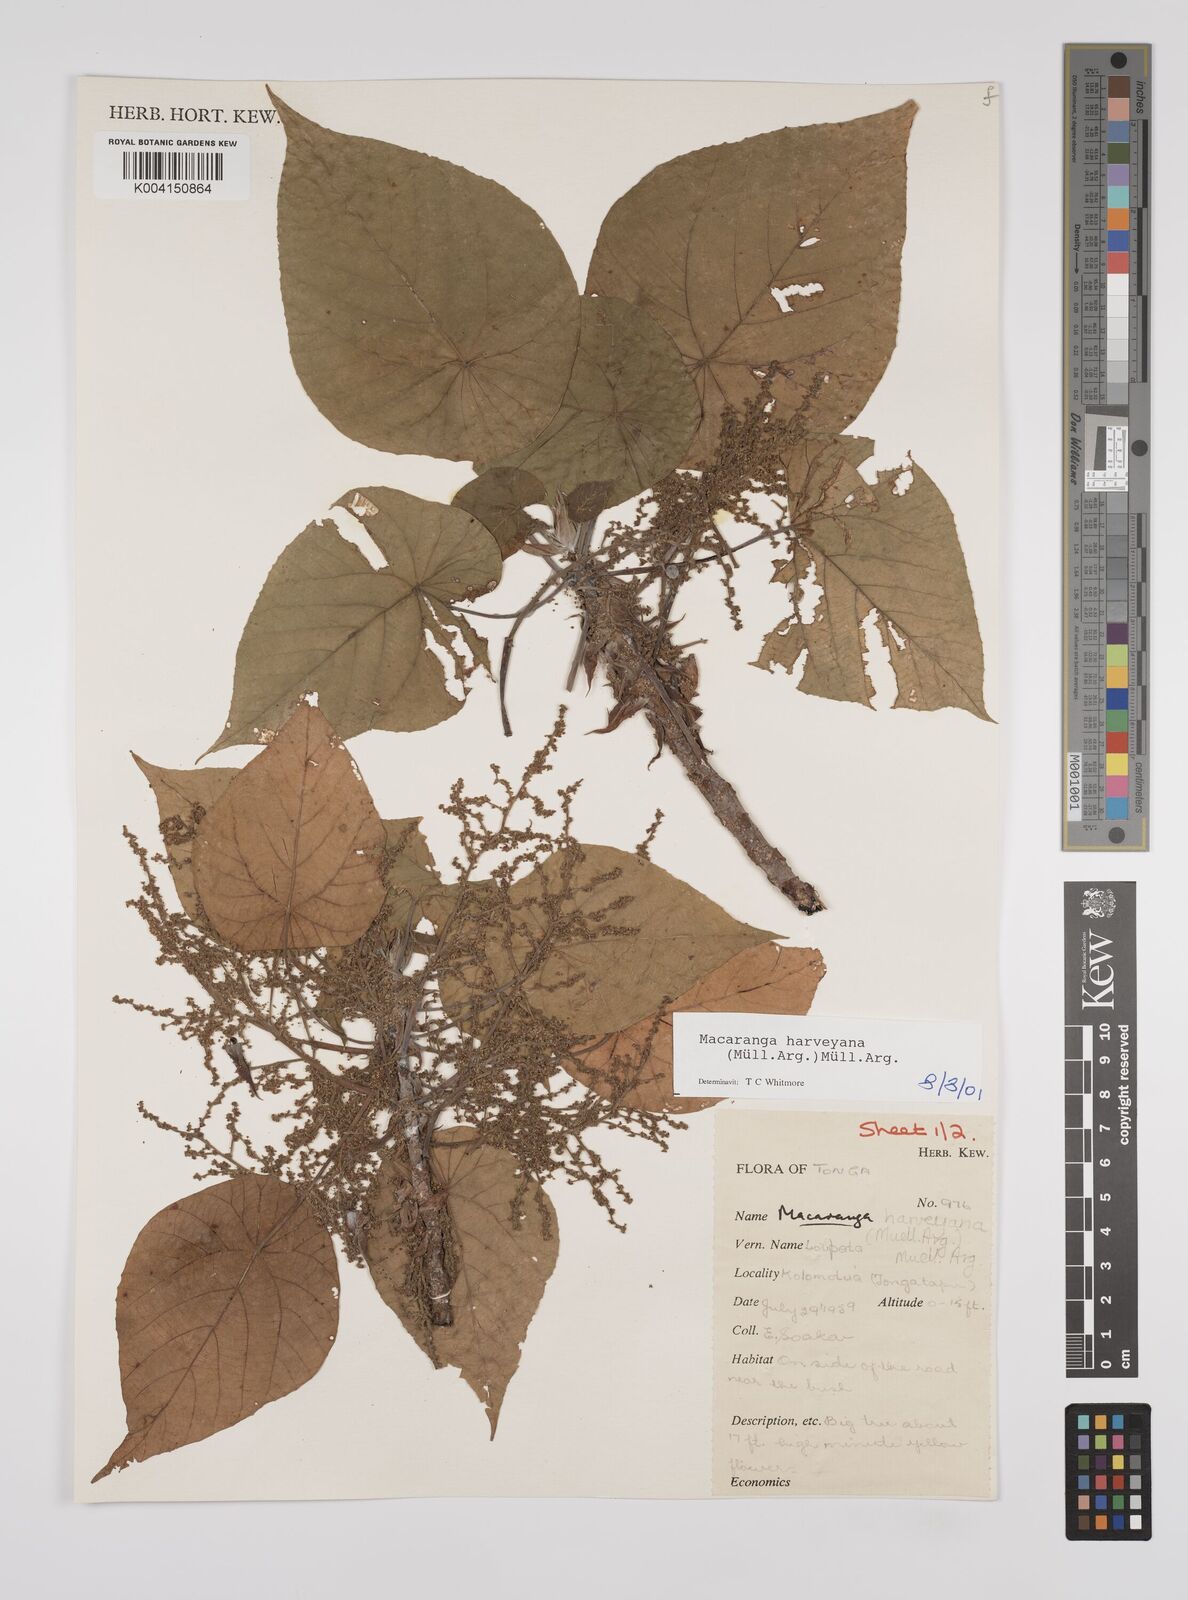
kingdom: Plantae
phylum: Tracheophyta
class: Magnoliopsida
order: Malpighiales
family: Euphorbiaceae
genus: Macaranga
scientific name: Macaranga harveyana
